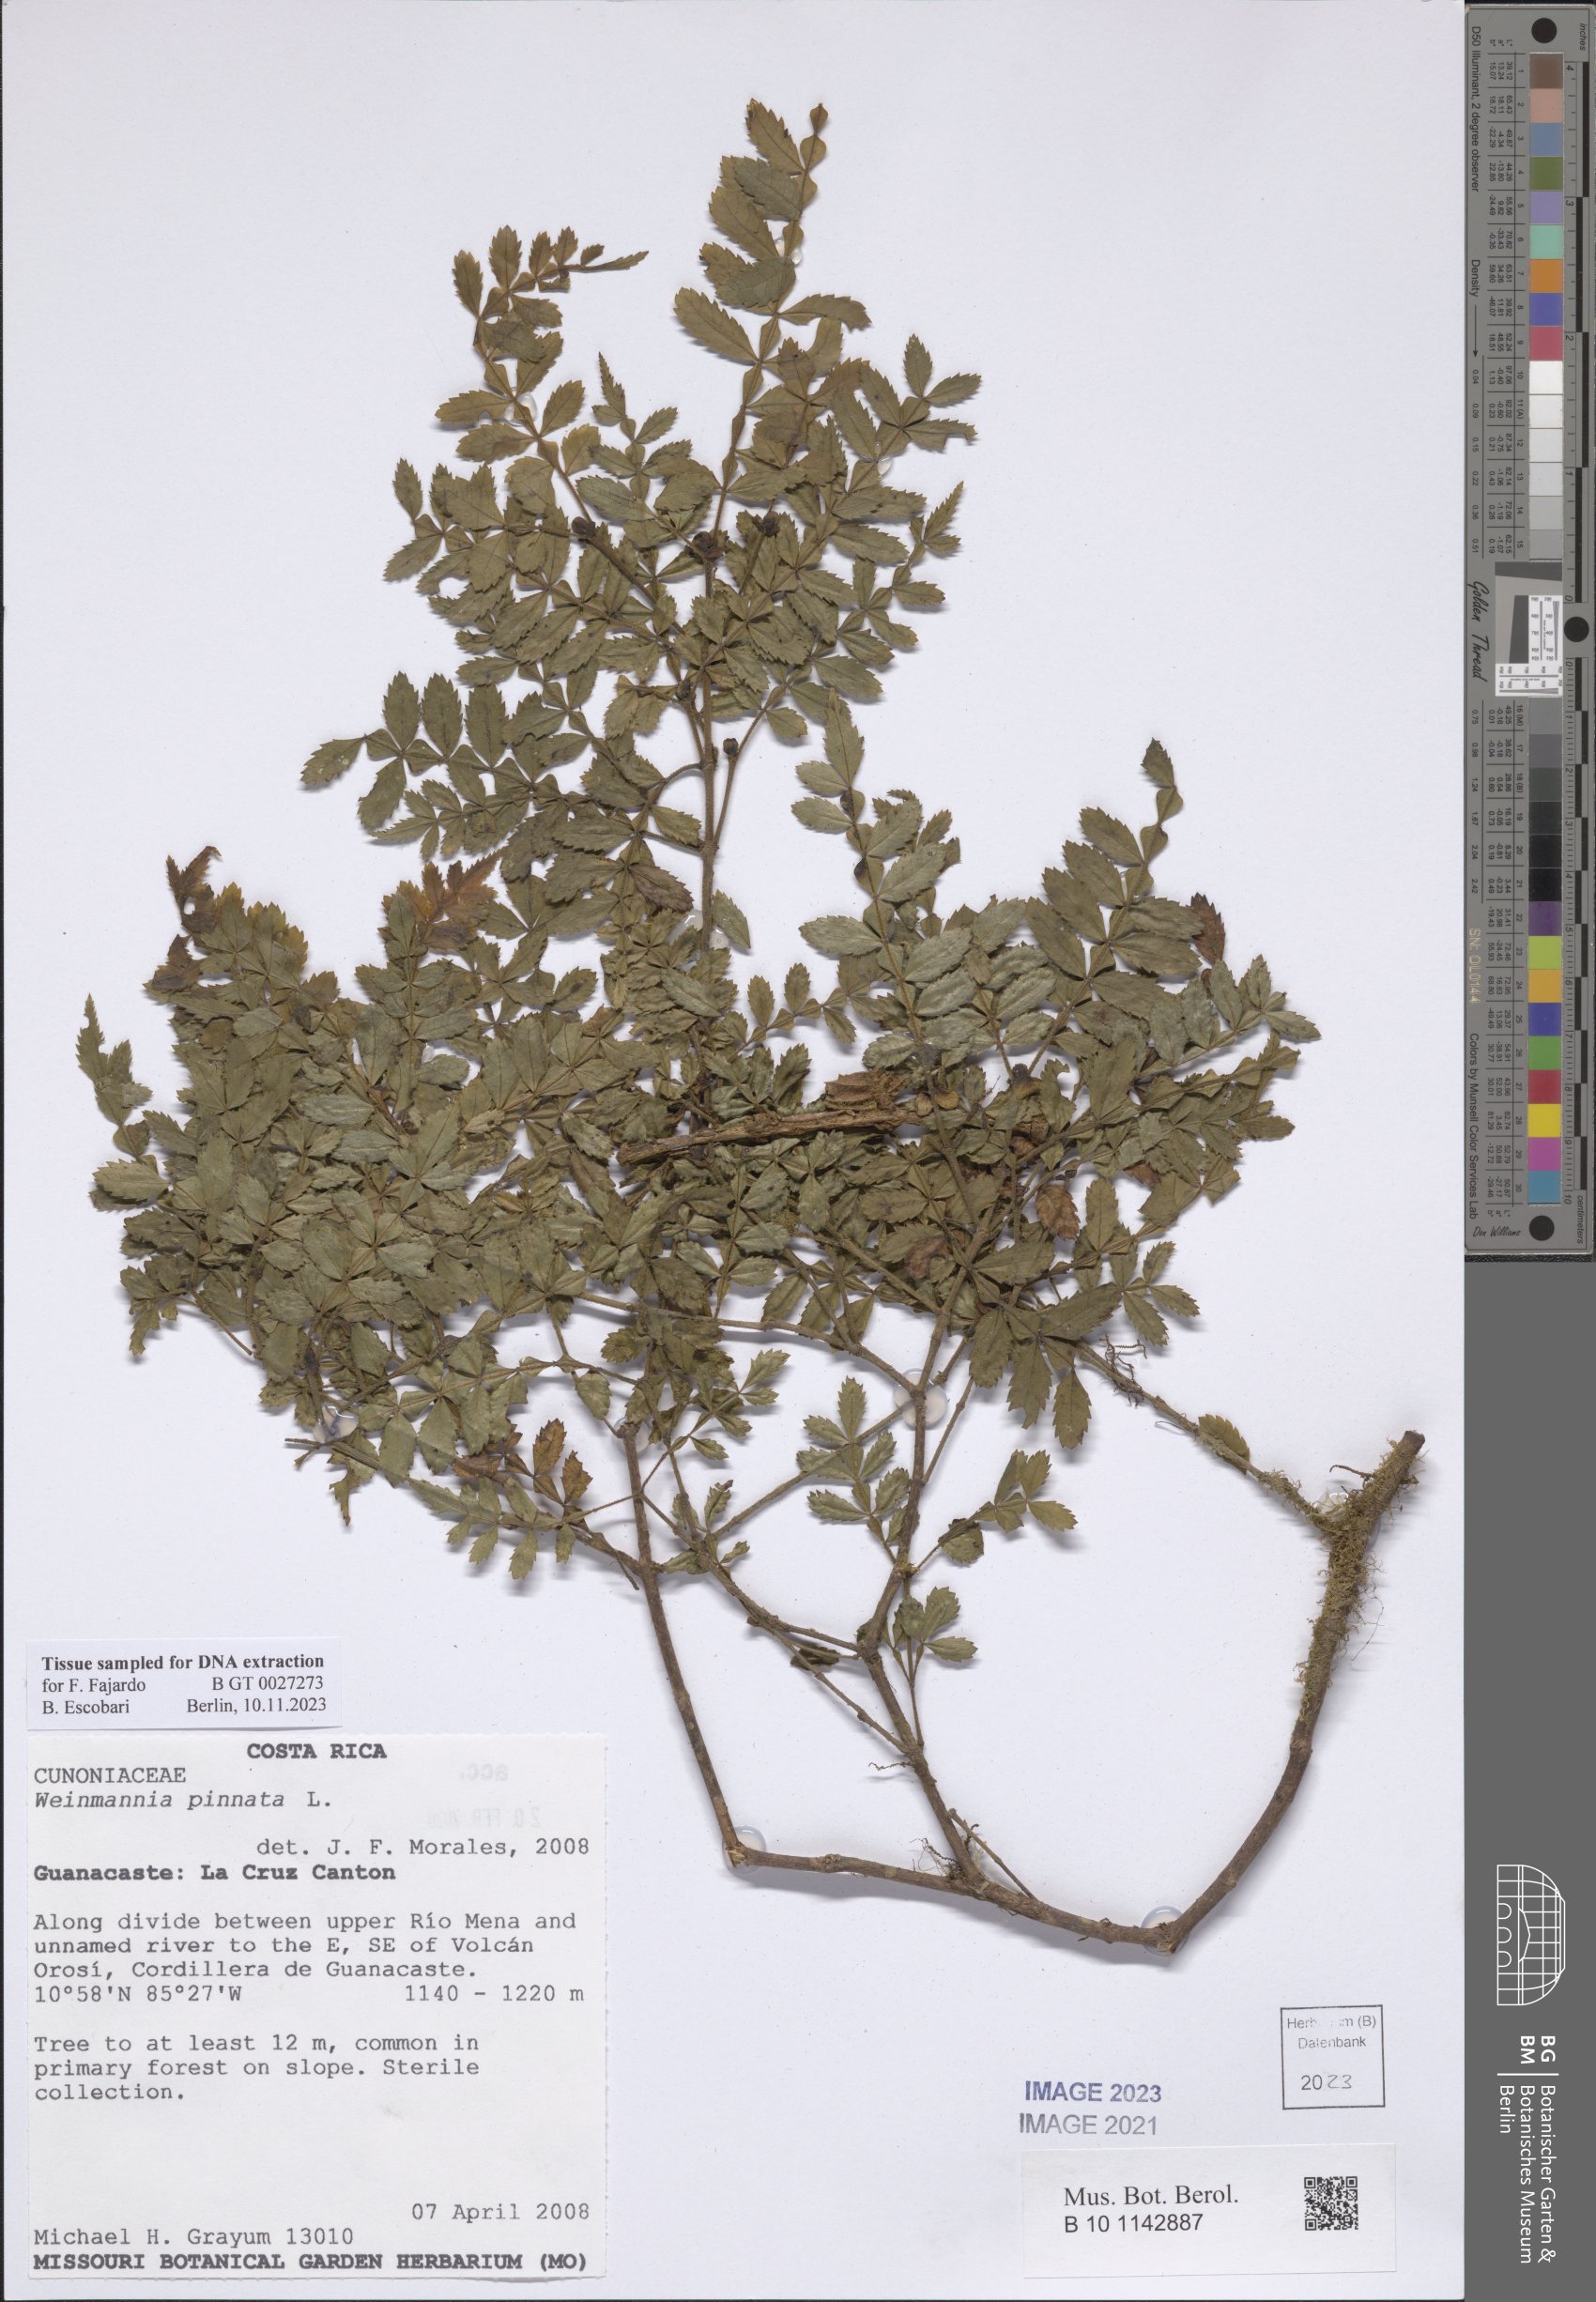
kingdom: Plantae
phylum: Tracheophyta
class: Magnoliopsida
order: Oxalidales
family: Cunoniaceae
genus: Weinmannia
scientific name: Weinmannia pinnata
